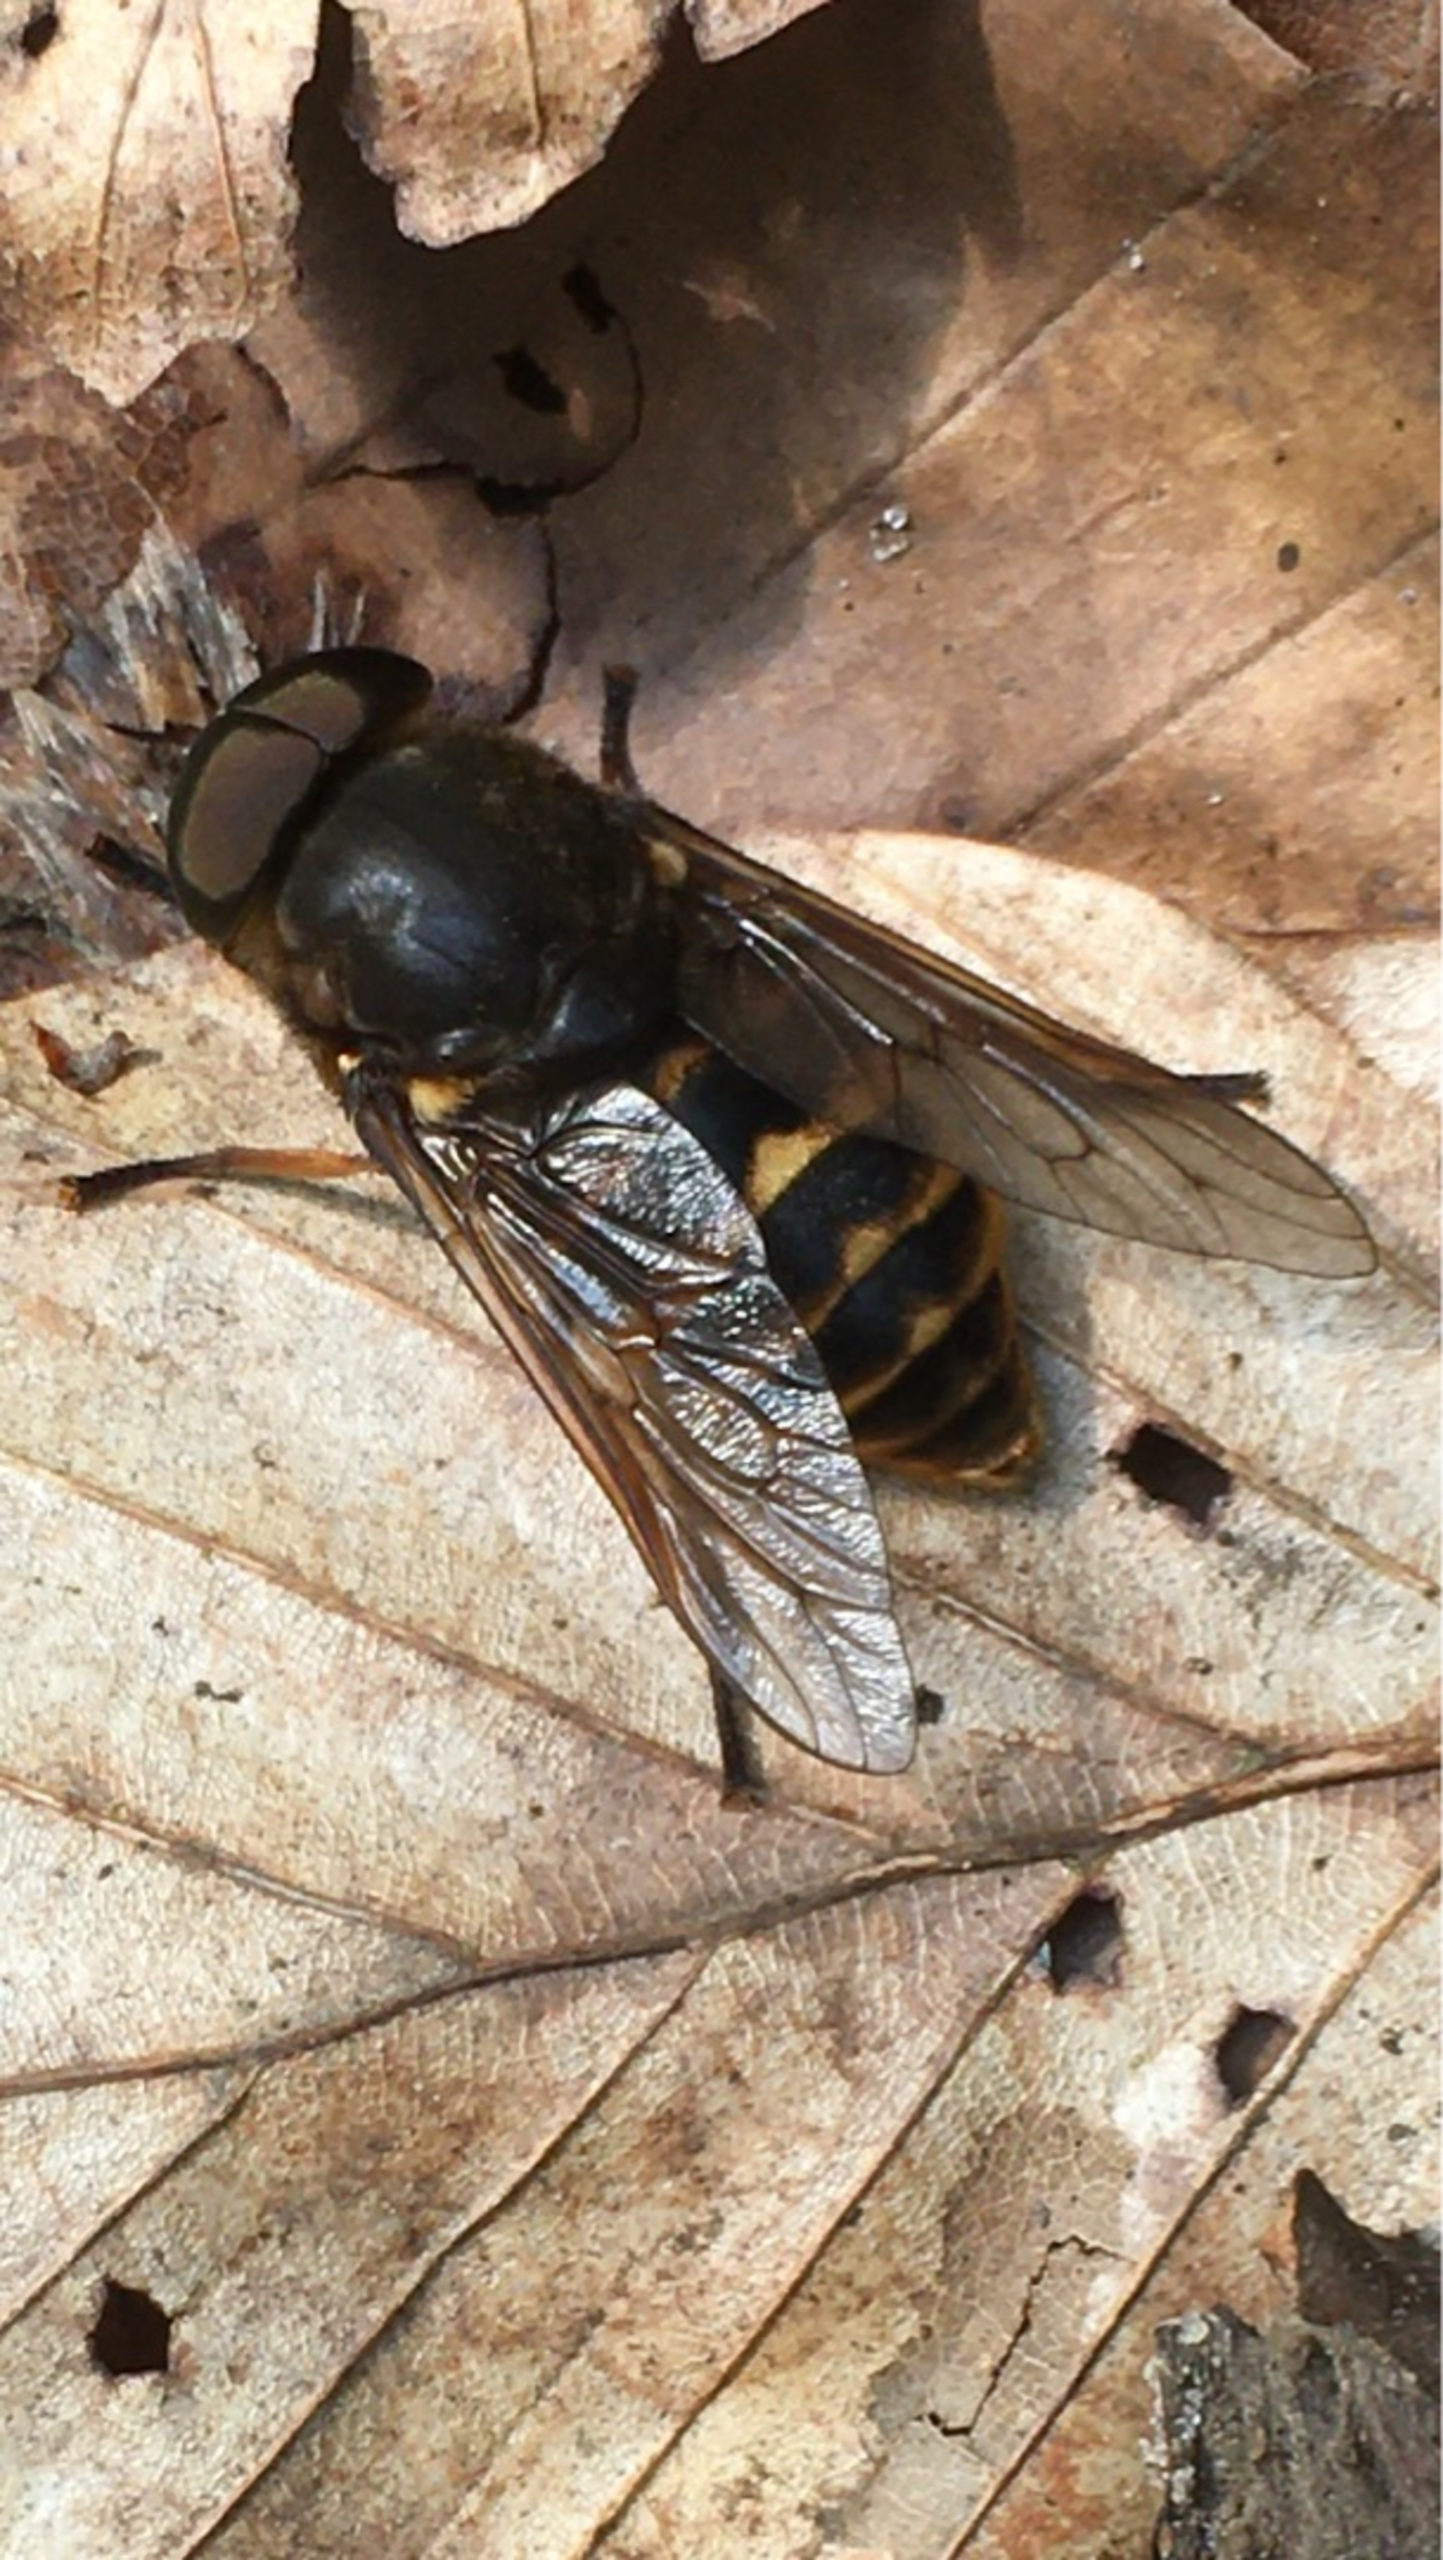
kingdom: Animalia
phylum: Arthropoda
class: Insecta
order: Diptera
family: Tabanidae
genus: Tabanus
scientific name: Tabanus sudeticus
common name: Hesteklæg
